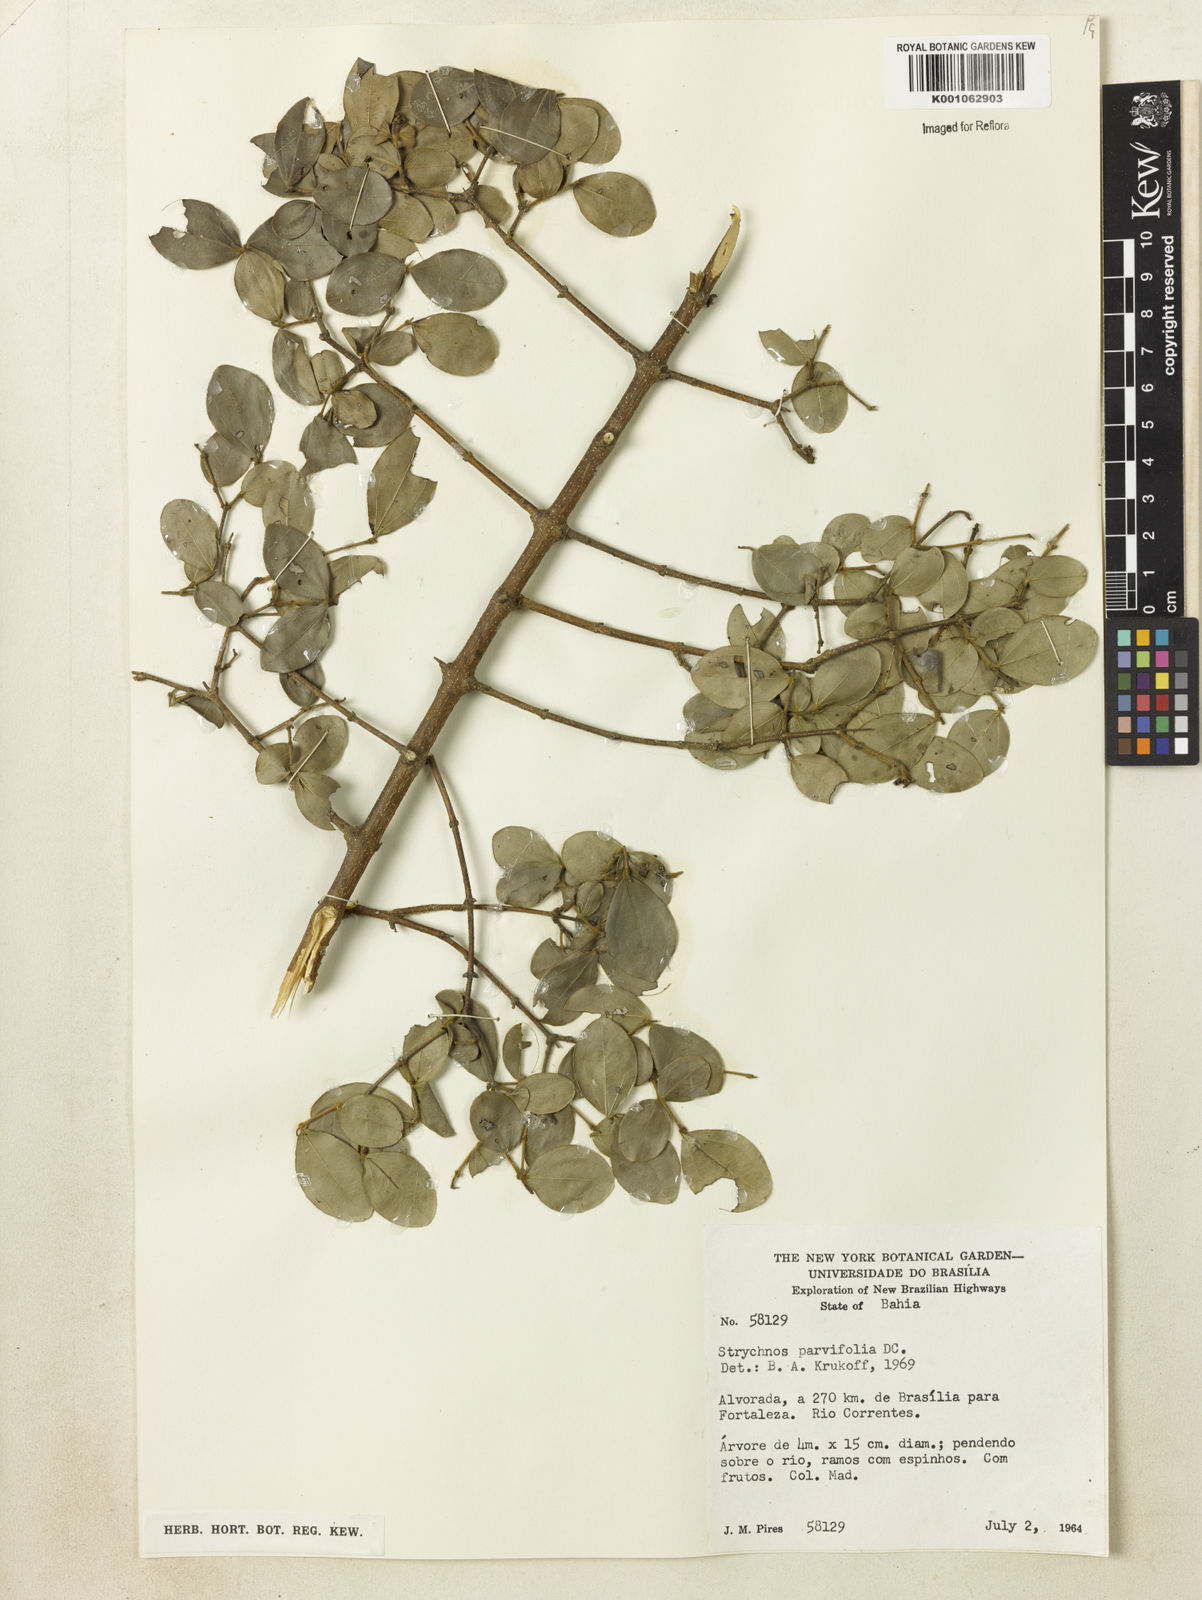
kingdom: Plantae
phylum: Tracheophyta
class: Magnoliopsida
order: Gentianales
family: Loganiaceae
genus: Strychnos
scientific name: Strychnos parvifolia
